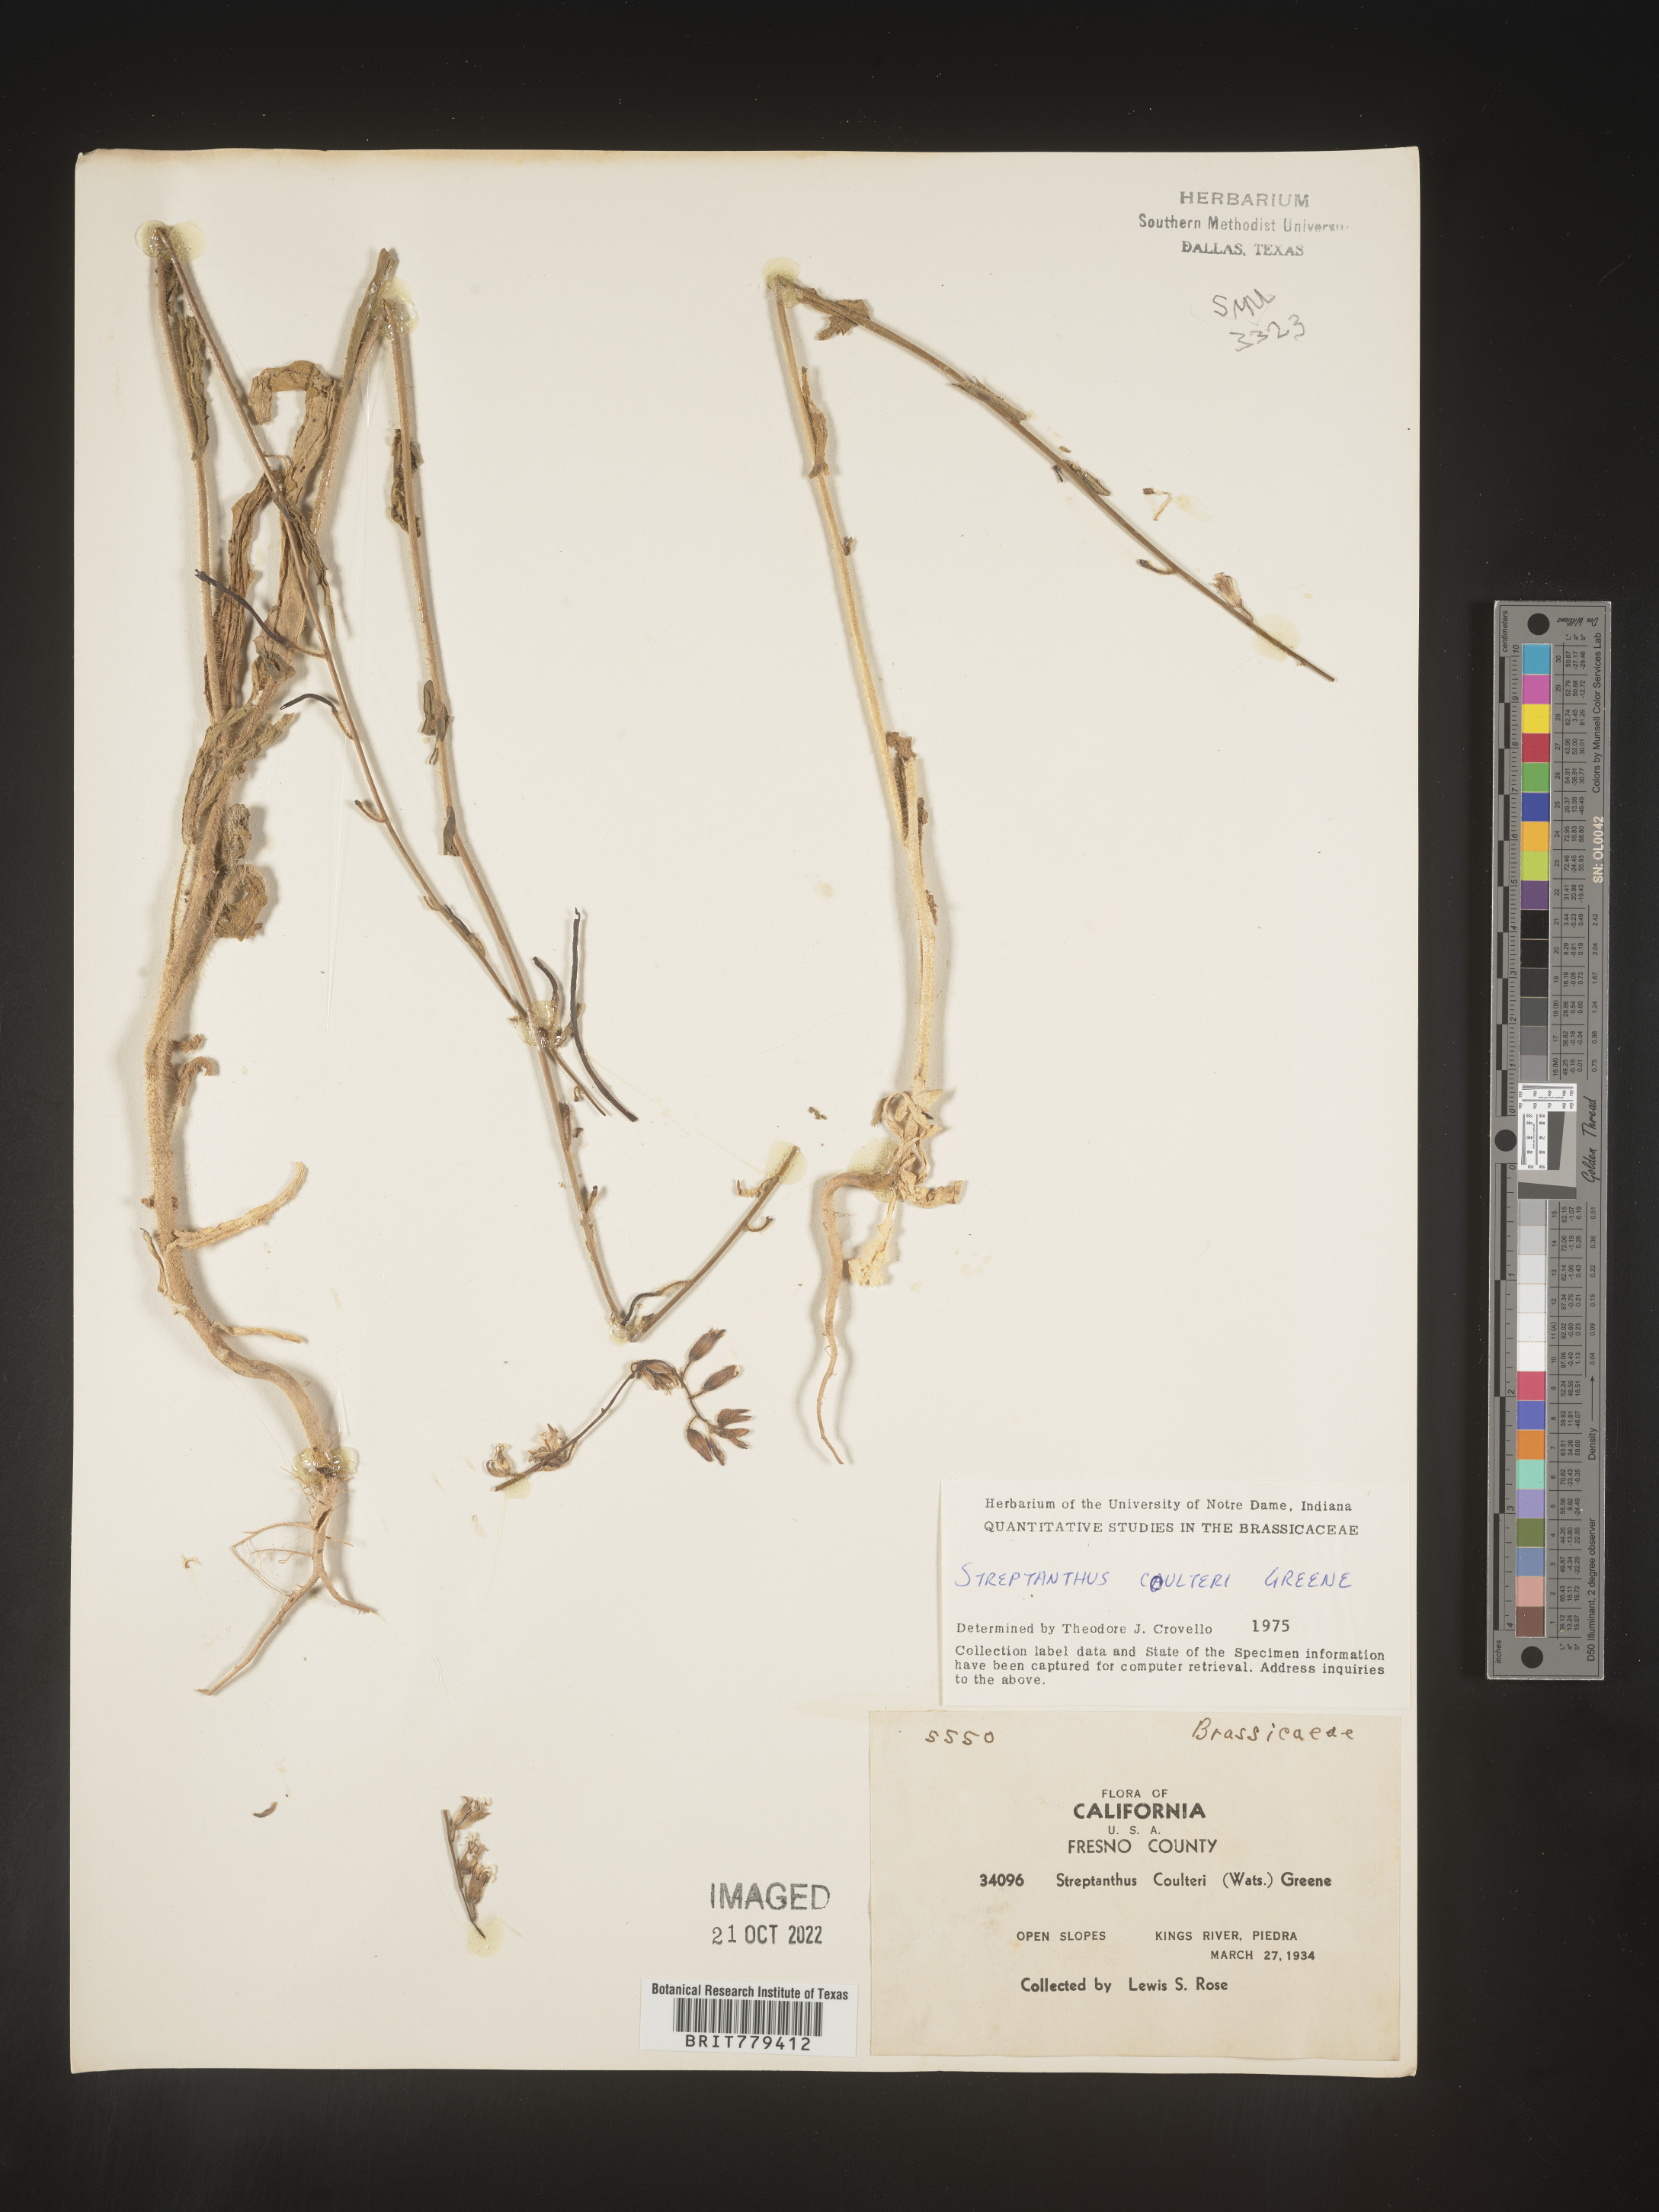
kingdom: Plantae
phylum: Tracheophyta
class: Magnoliopsida
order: Brassicales
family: Brassicaceae
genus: Streptanthus
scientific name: Streptanthus
